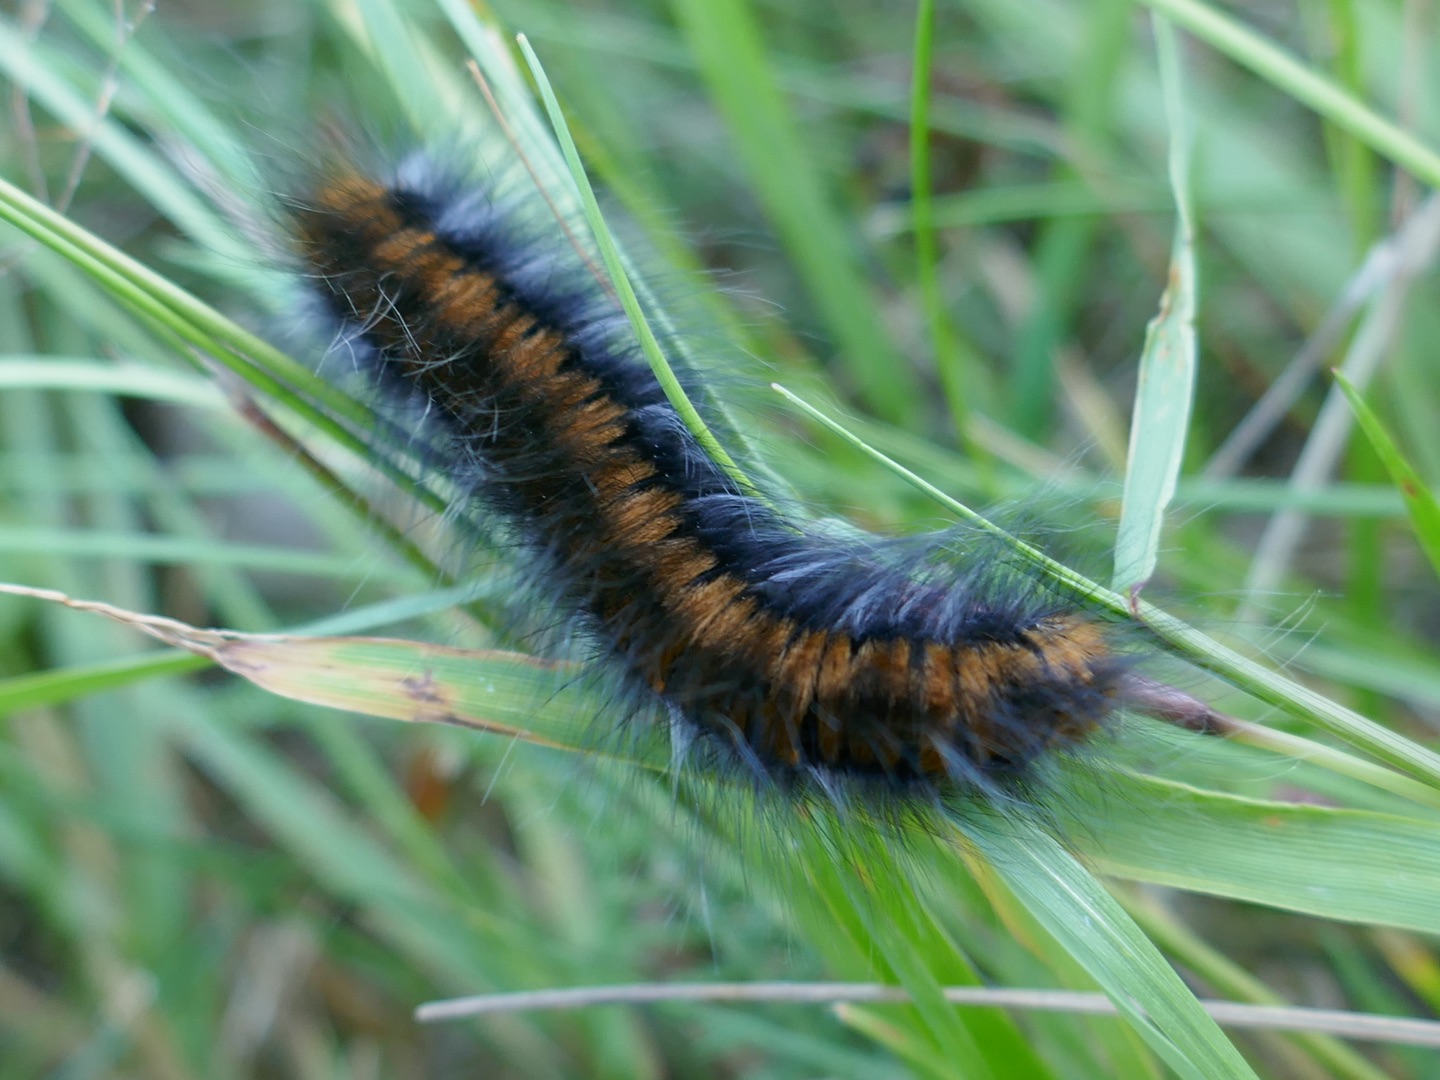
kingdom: Animalia
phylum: Arthropoda
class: Insecta
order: Lepidoptera
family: Lasiocampidae
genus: Macrothylacia
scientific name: Macrothylacia rubi
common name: Brombærspinder
